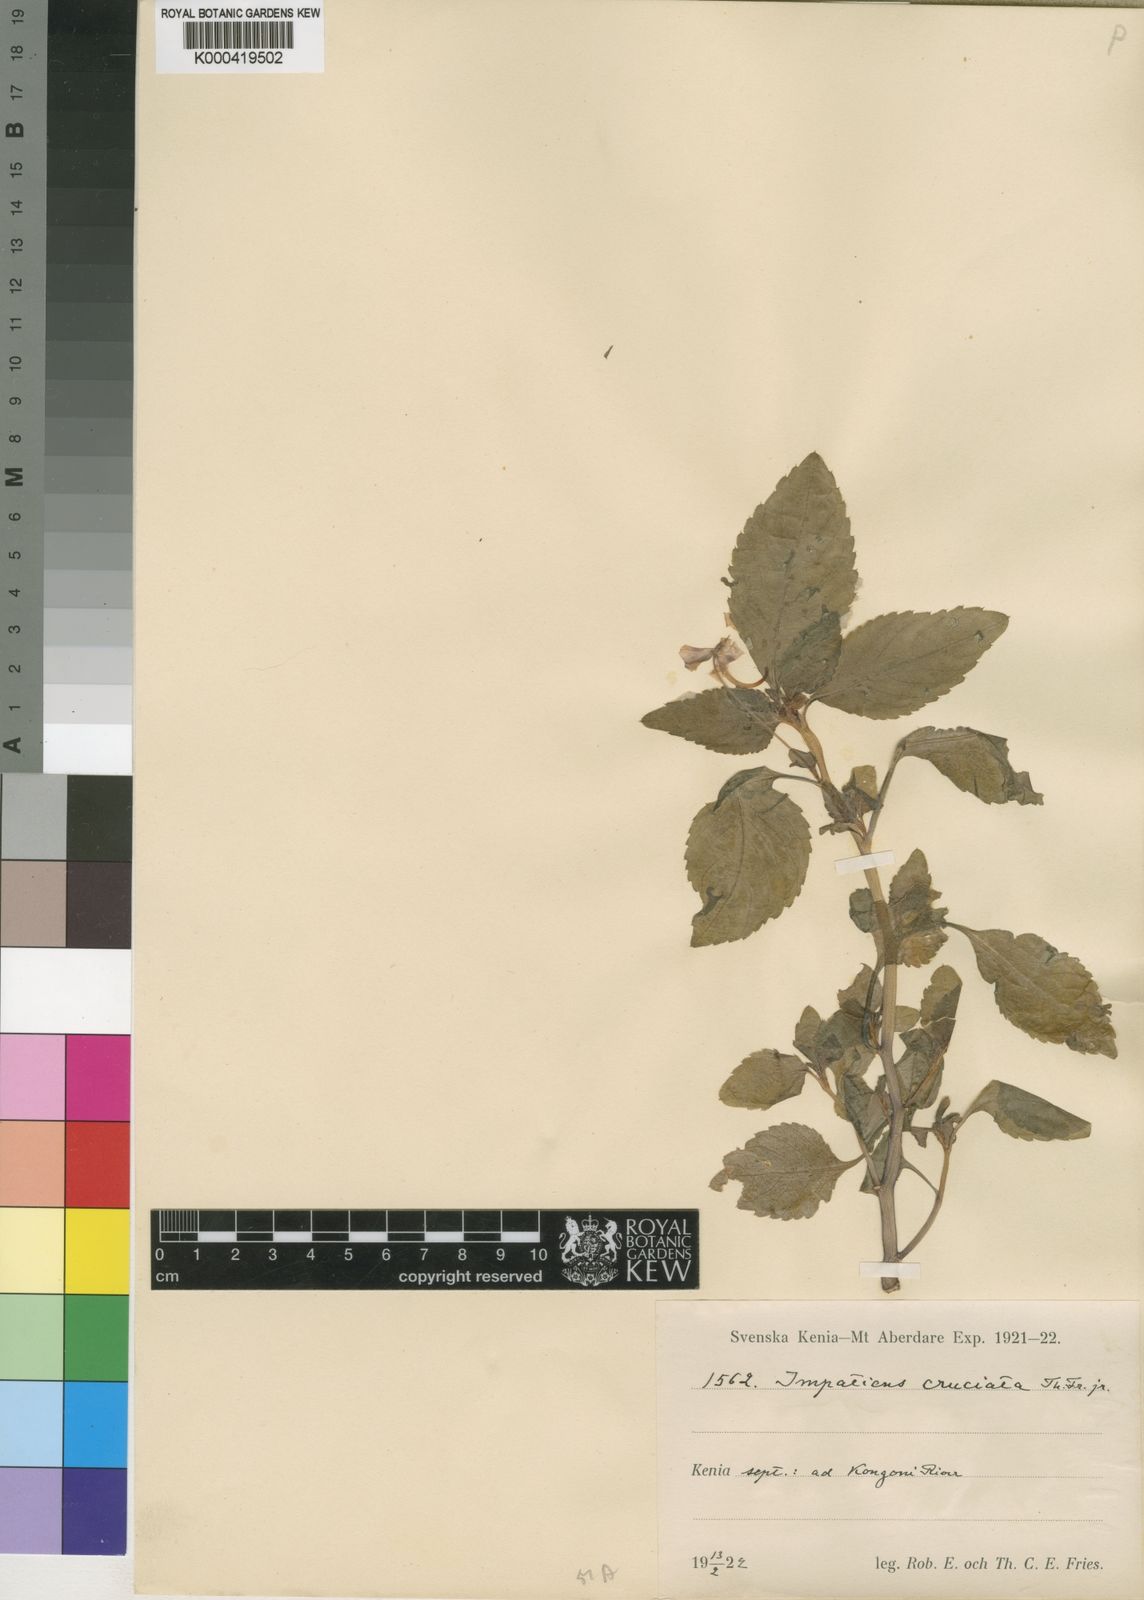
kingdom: Plantae
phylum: Tracheophyta
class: Magnoliopsida
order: Ericales
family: Balsaminaceae
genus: Impatiens
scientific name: Impatiens meruensis
